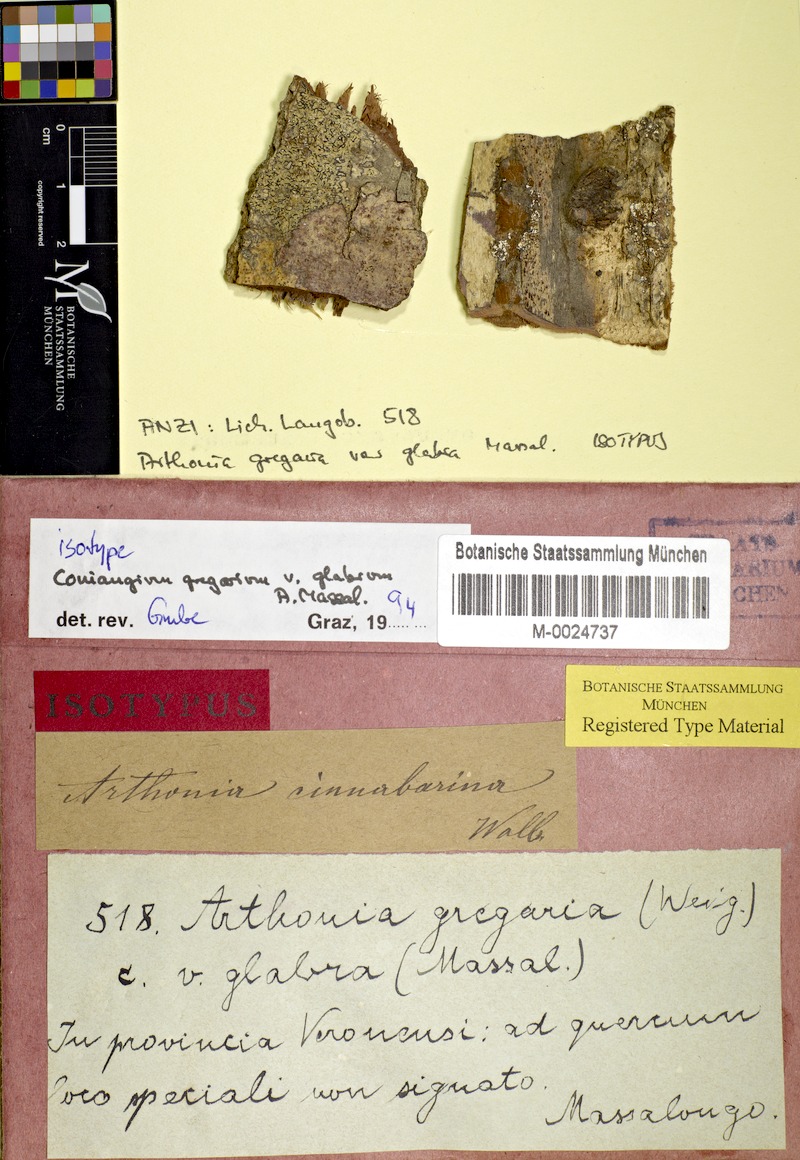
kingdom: Fungi
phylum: Ascomycota
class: Arthoniomycetes
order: Arthoniales
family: Arthoniaceae
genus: Coniocarpon
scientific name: Coniocarpon cinnabarinum
